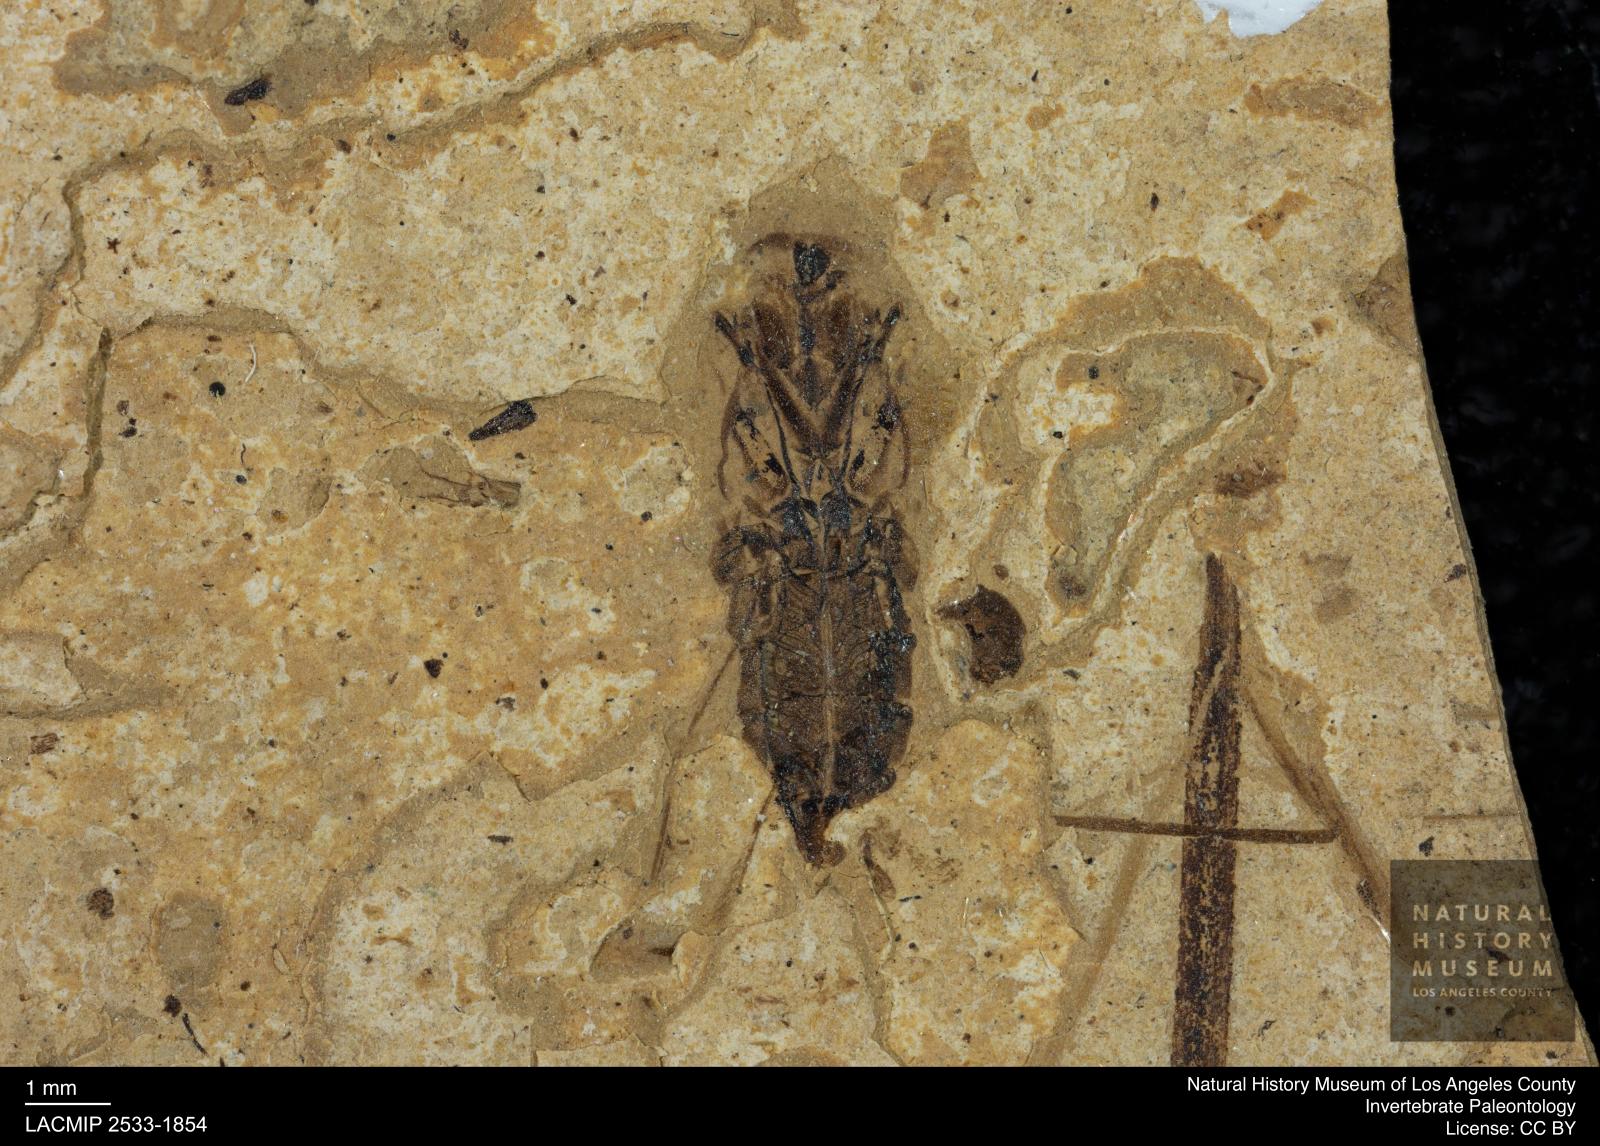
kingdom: Animalia
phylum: Arthropoda
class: Insecta
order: Hemiptera
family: Notonectidae
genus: Notonecta
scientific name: Notonecta
